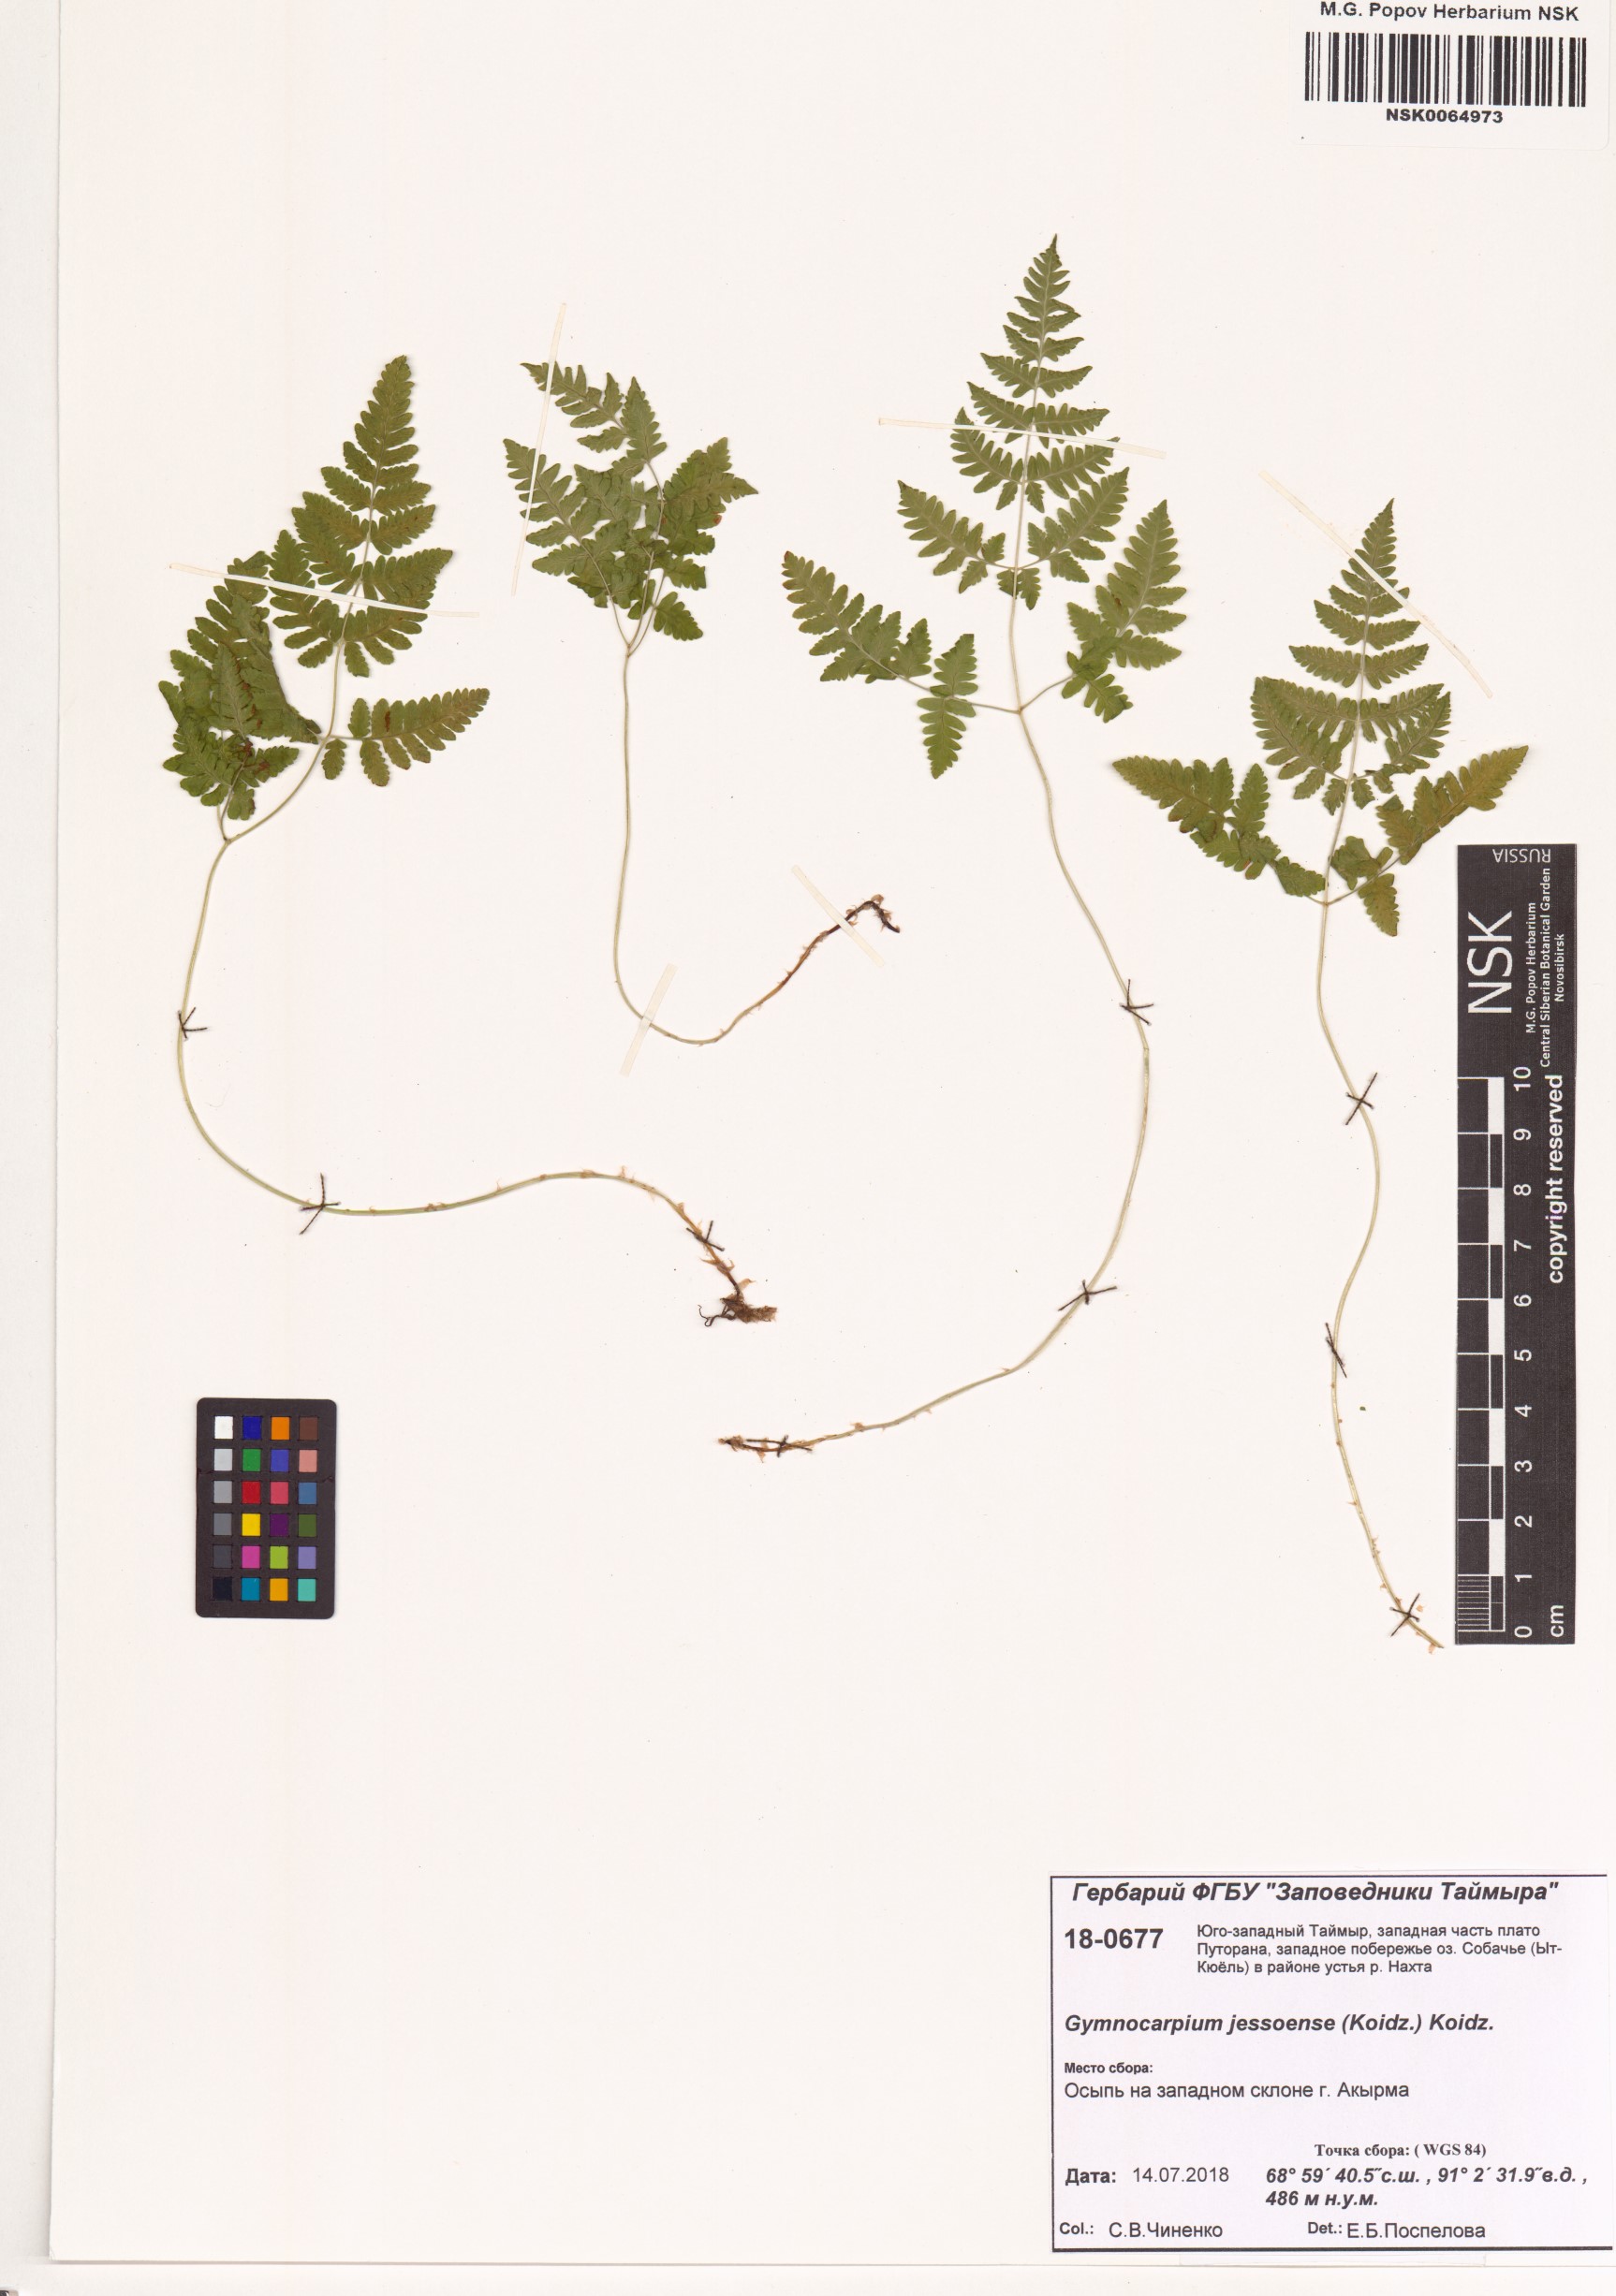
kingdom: Plantae
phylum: Tracheophyta
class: Polypodiopsida
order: Polypodiales
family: Cystopteridaceae
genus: Gymnocarpium
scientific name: Gymnocarpium jessoense
